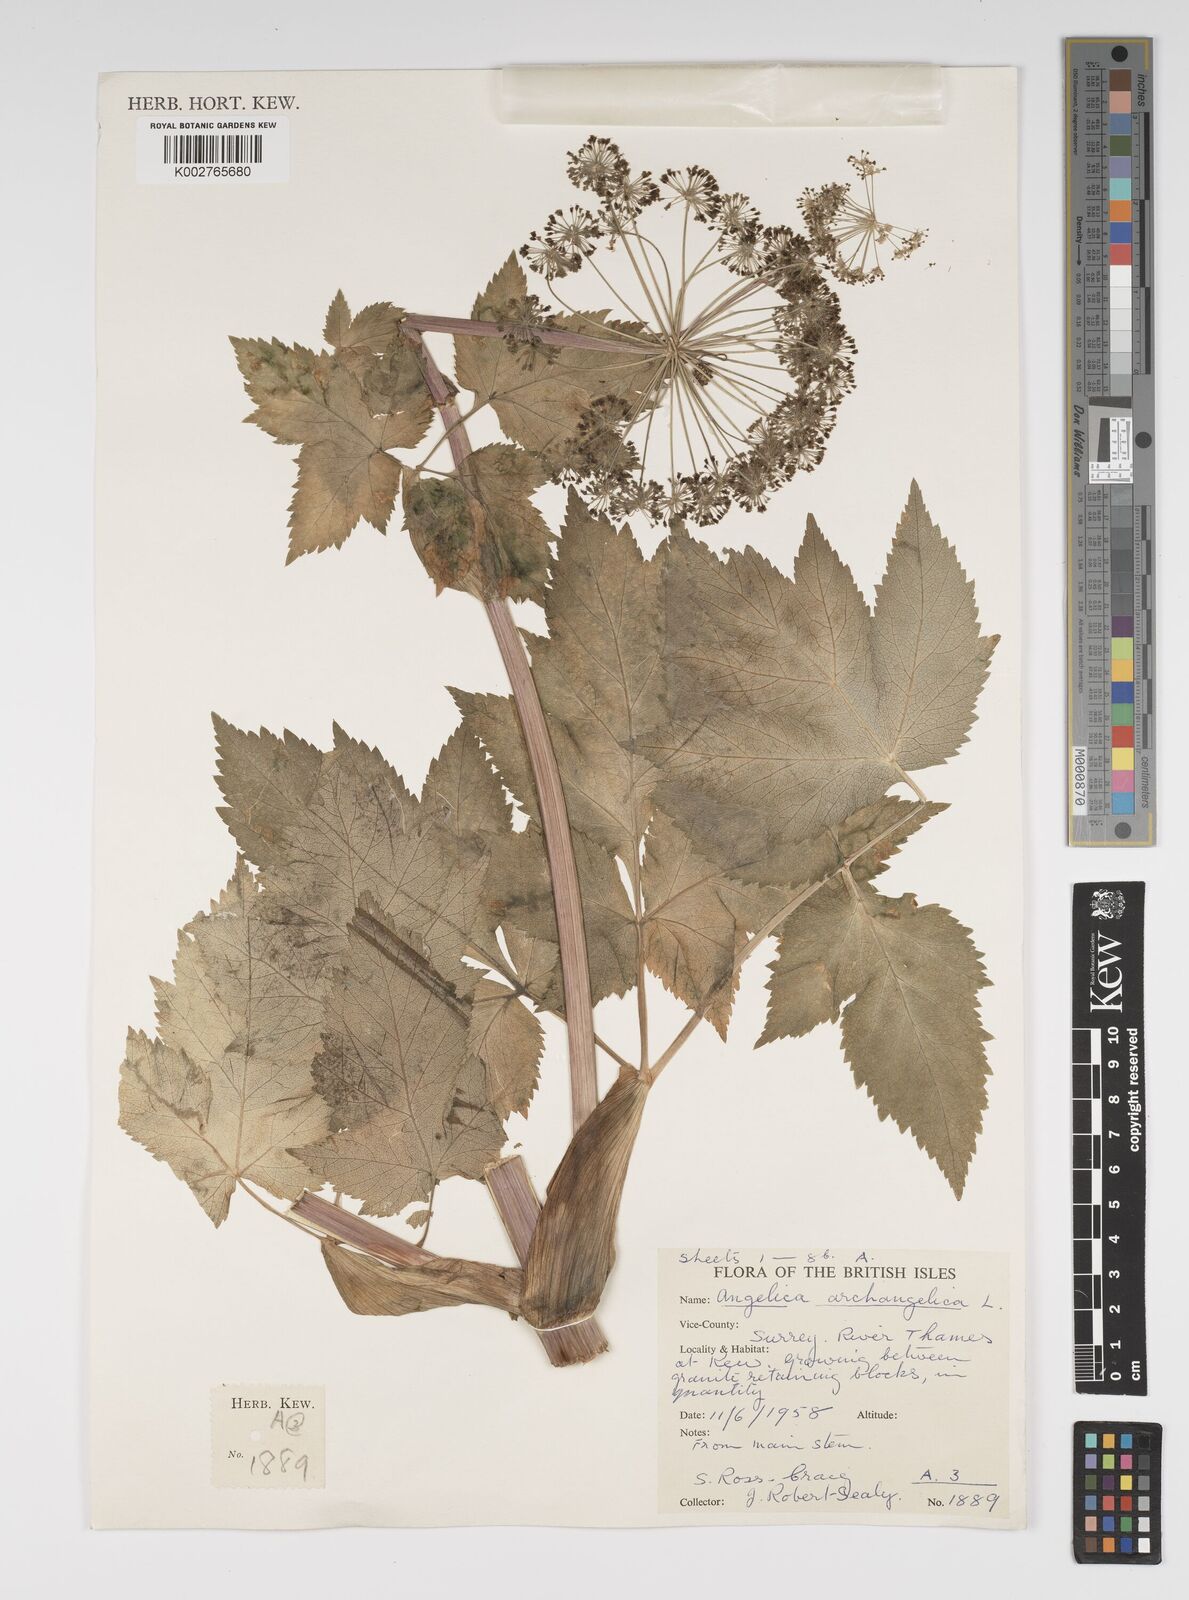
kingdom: Plantae
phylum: Tracheophyta
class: Magnoliopsida
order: Apiales
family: Apiaceae
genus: Angelica
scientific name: Angelica archangelica
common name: Garden angelica
